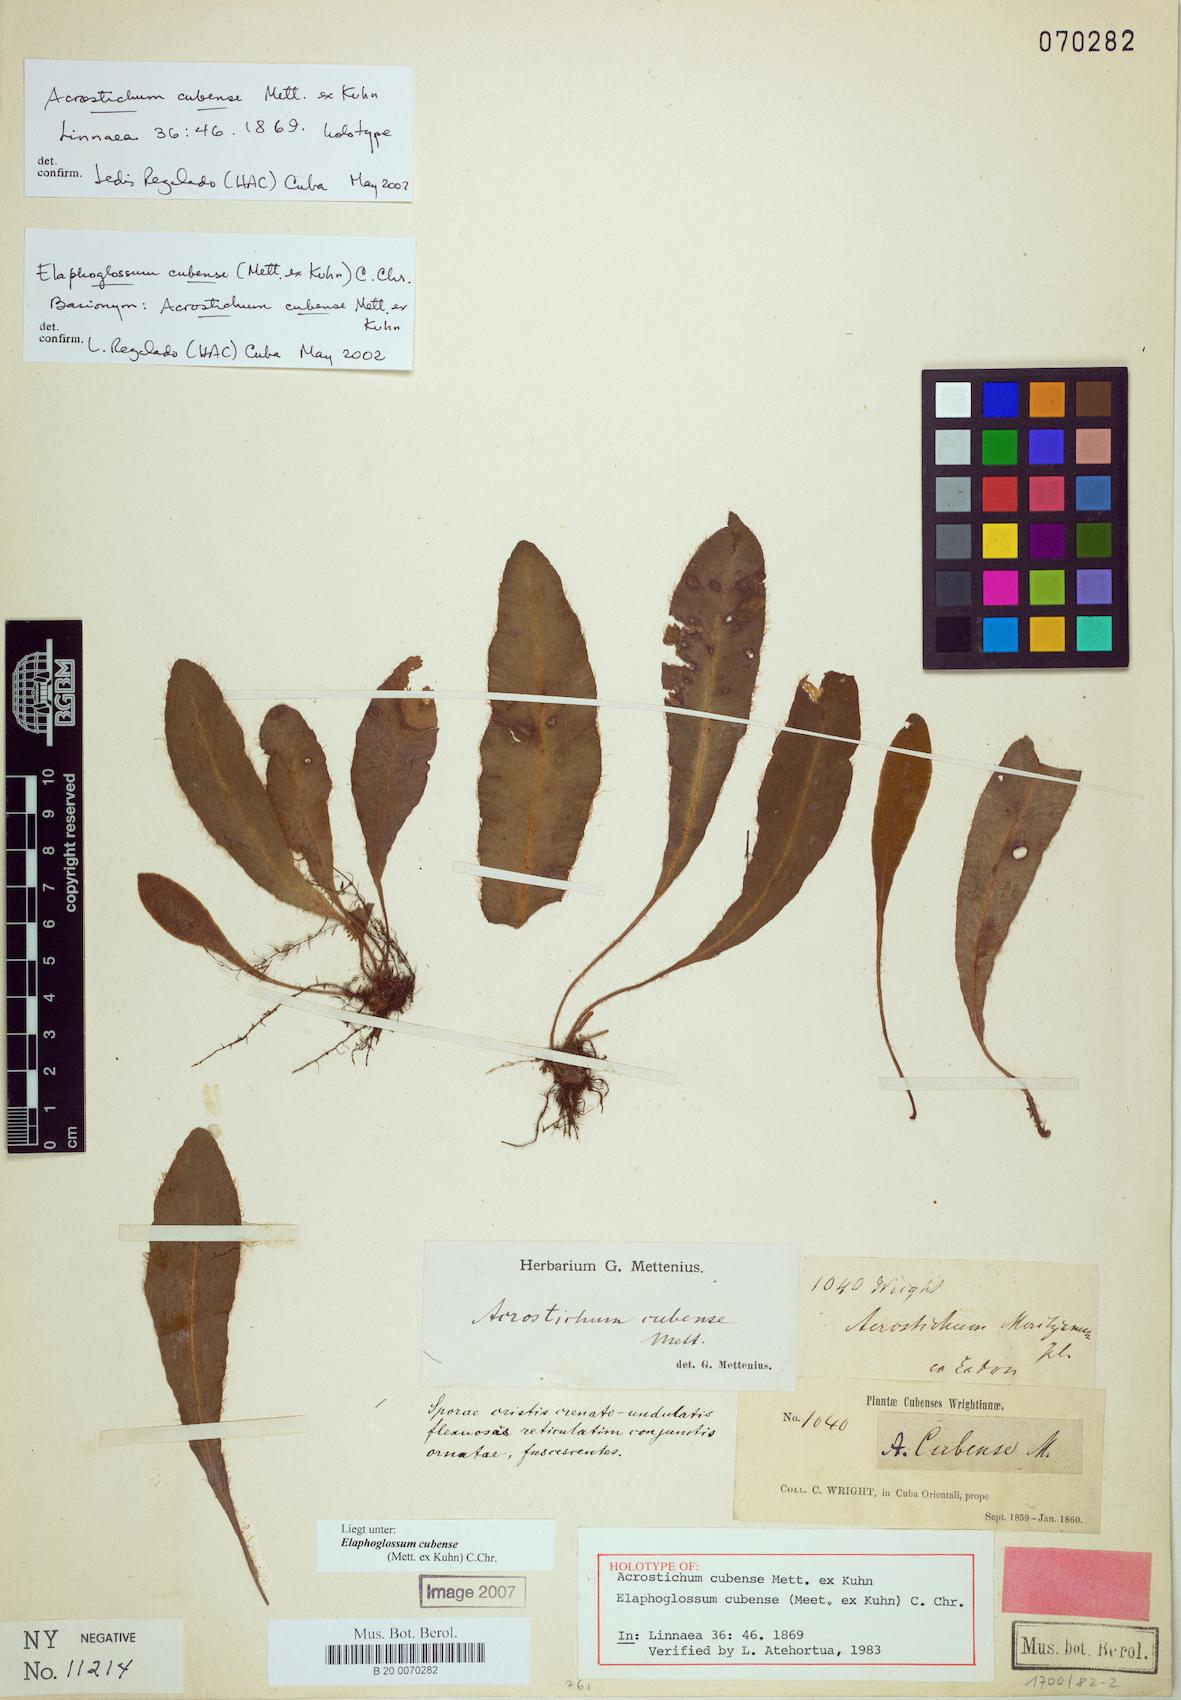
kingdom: Plantae
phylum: Tracheophyta
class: Polypodiopsida
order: Polypodiales
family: Dryopteridaceae
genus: Elaphoglossum
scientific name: Elaphoglossum cubense
